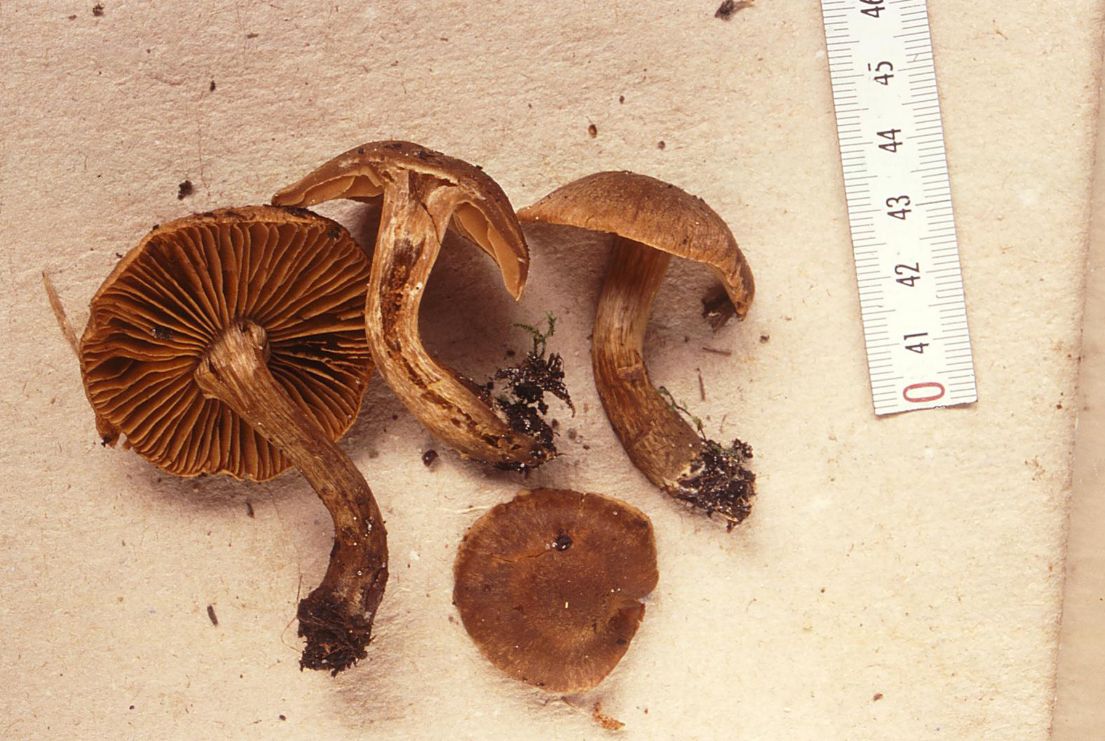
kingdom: Fungi
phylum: Basidiomycota
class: Agaricomycetes
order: Agaricales
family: Cortinariaceae
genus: Cortinarius
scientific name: Cortinarius raphanoides
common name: ræddike-slørhat
